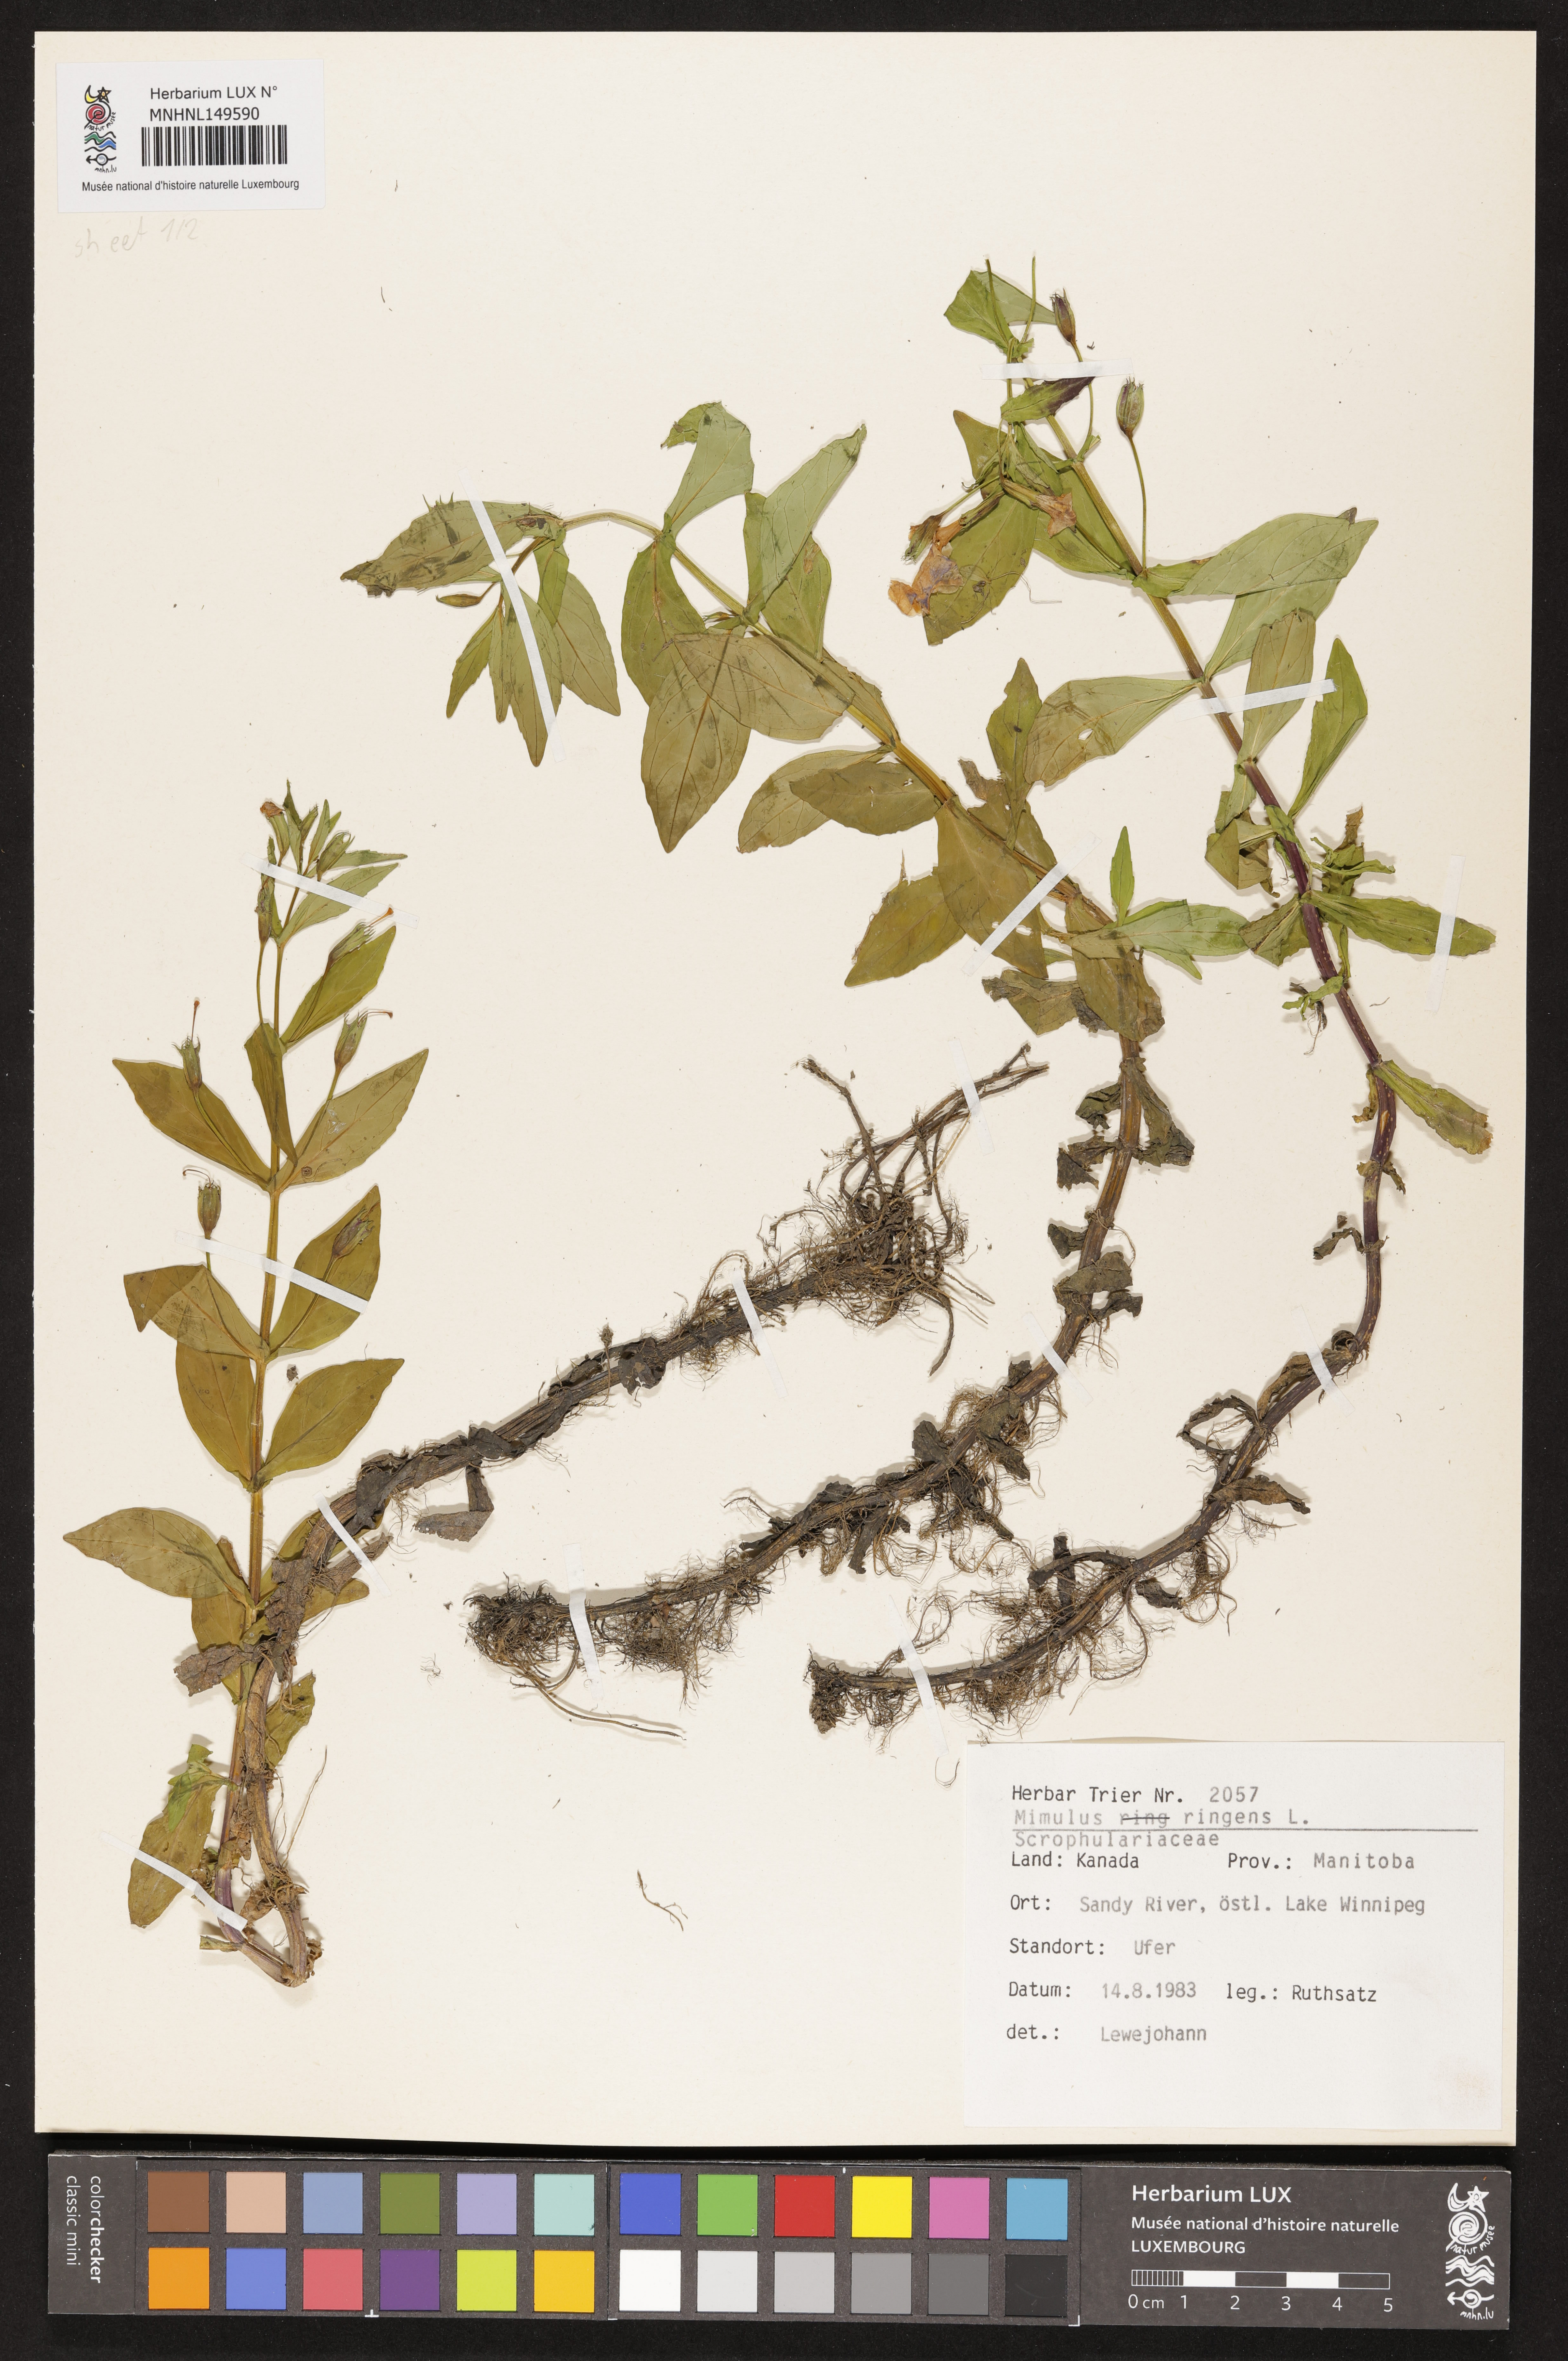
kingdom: Plantae
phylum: Tracheophyta
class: Magnoliopsida
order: Lamiales
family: Phrymaceae
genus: Mimulus
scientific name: Mimulus ringens
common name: Allegheny monkeyflower
